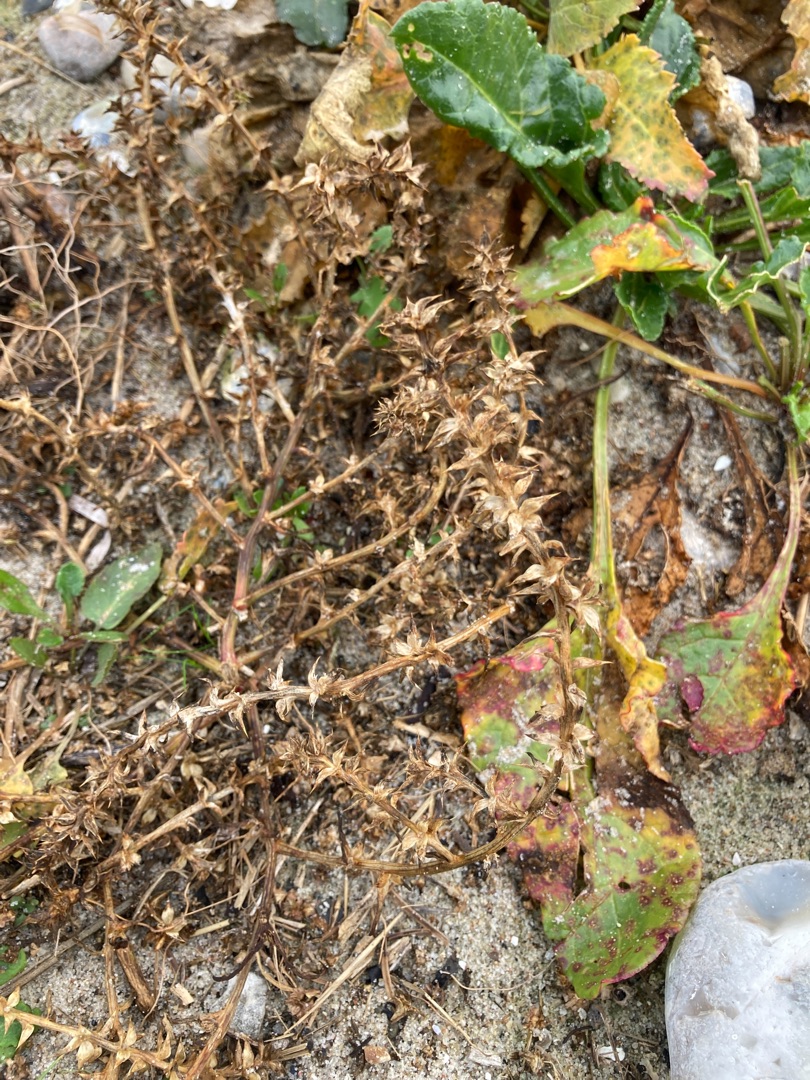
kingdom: Plantae
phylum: Tracheophyta
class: Magnoliopsida
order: Caryophyllales
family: Amaranthaceae
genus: Salsola
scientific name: Salsola kali
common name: Sodaurt
